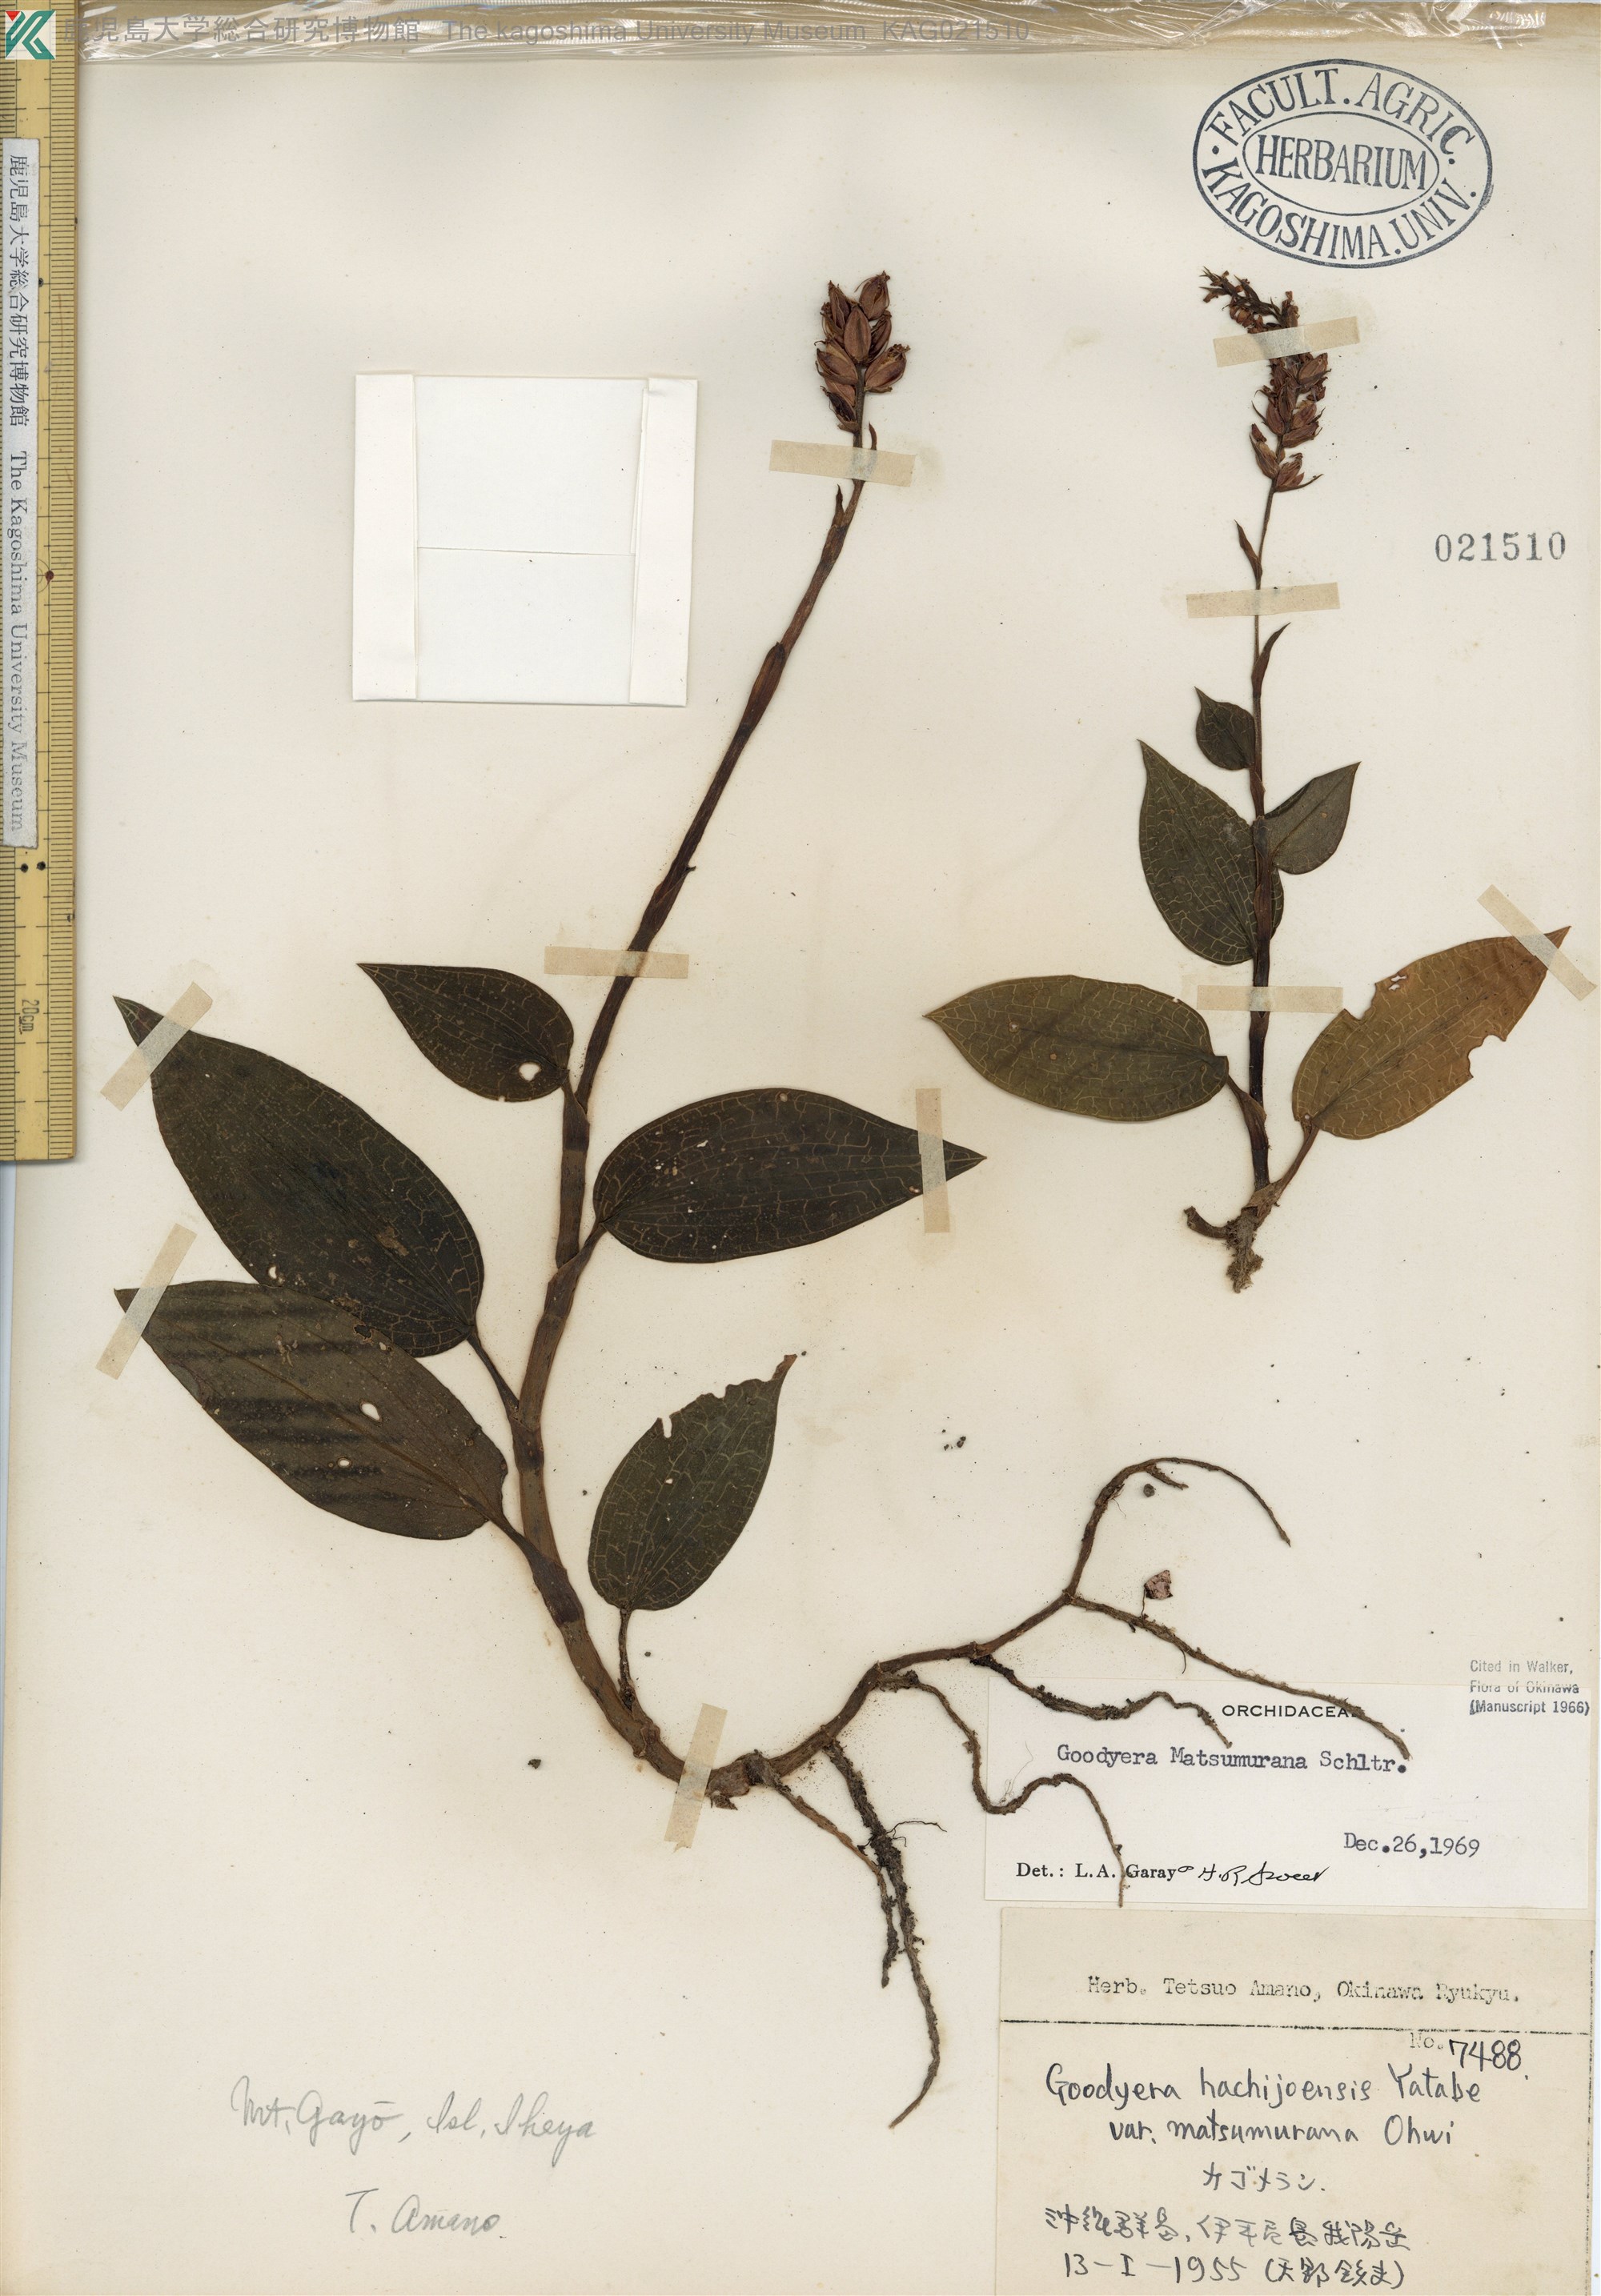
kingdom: Plantae
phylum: Tracheophyta
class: Liliopsida
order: Asparagales
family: Orchidaceae
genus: Goodyera
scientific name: Goodyera hachijoensis
